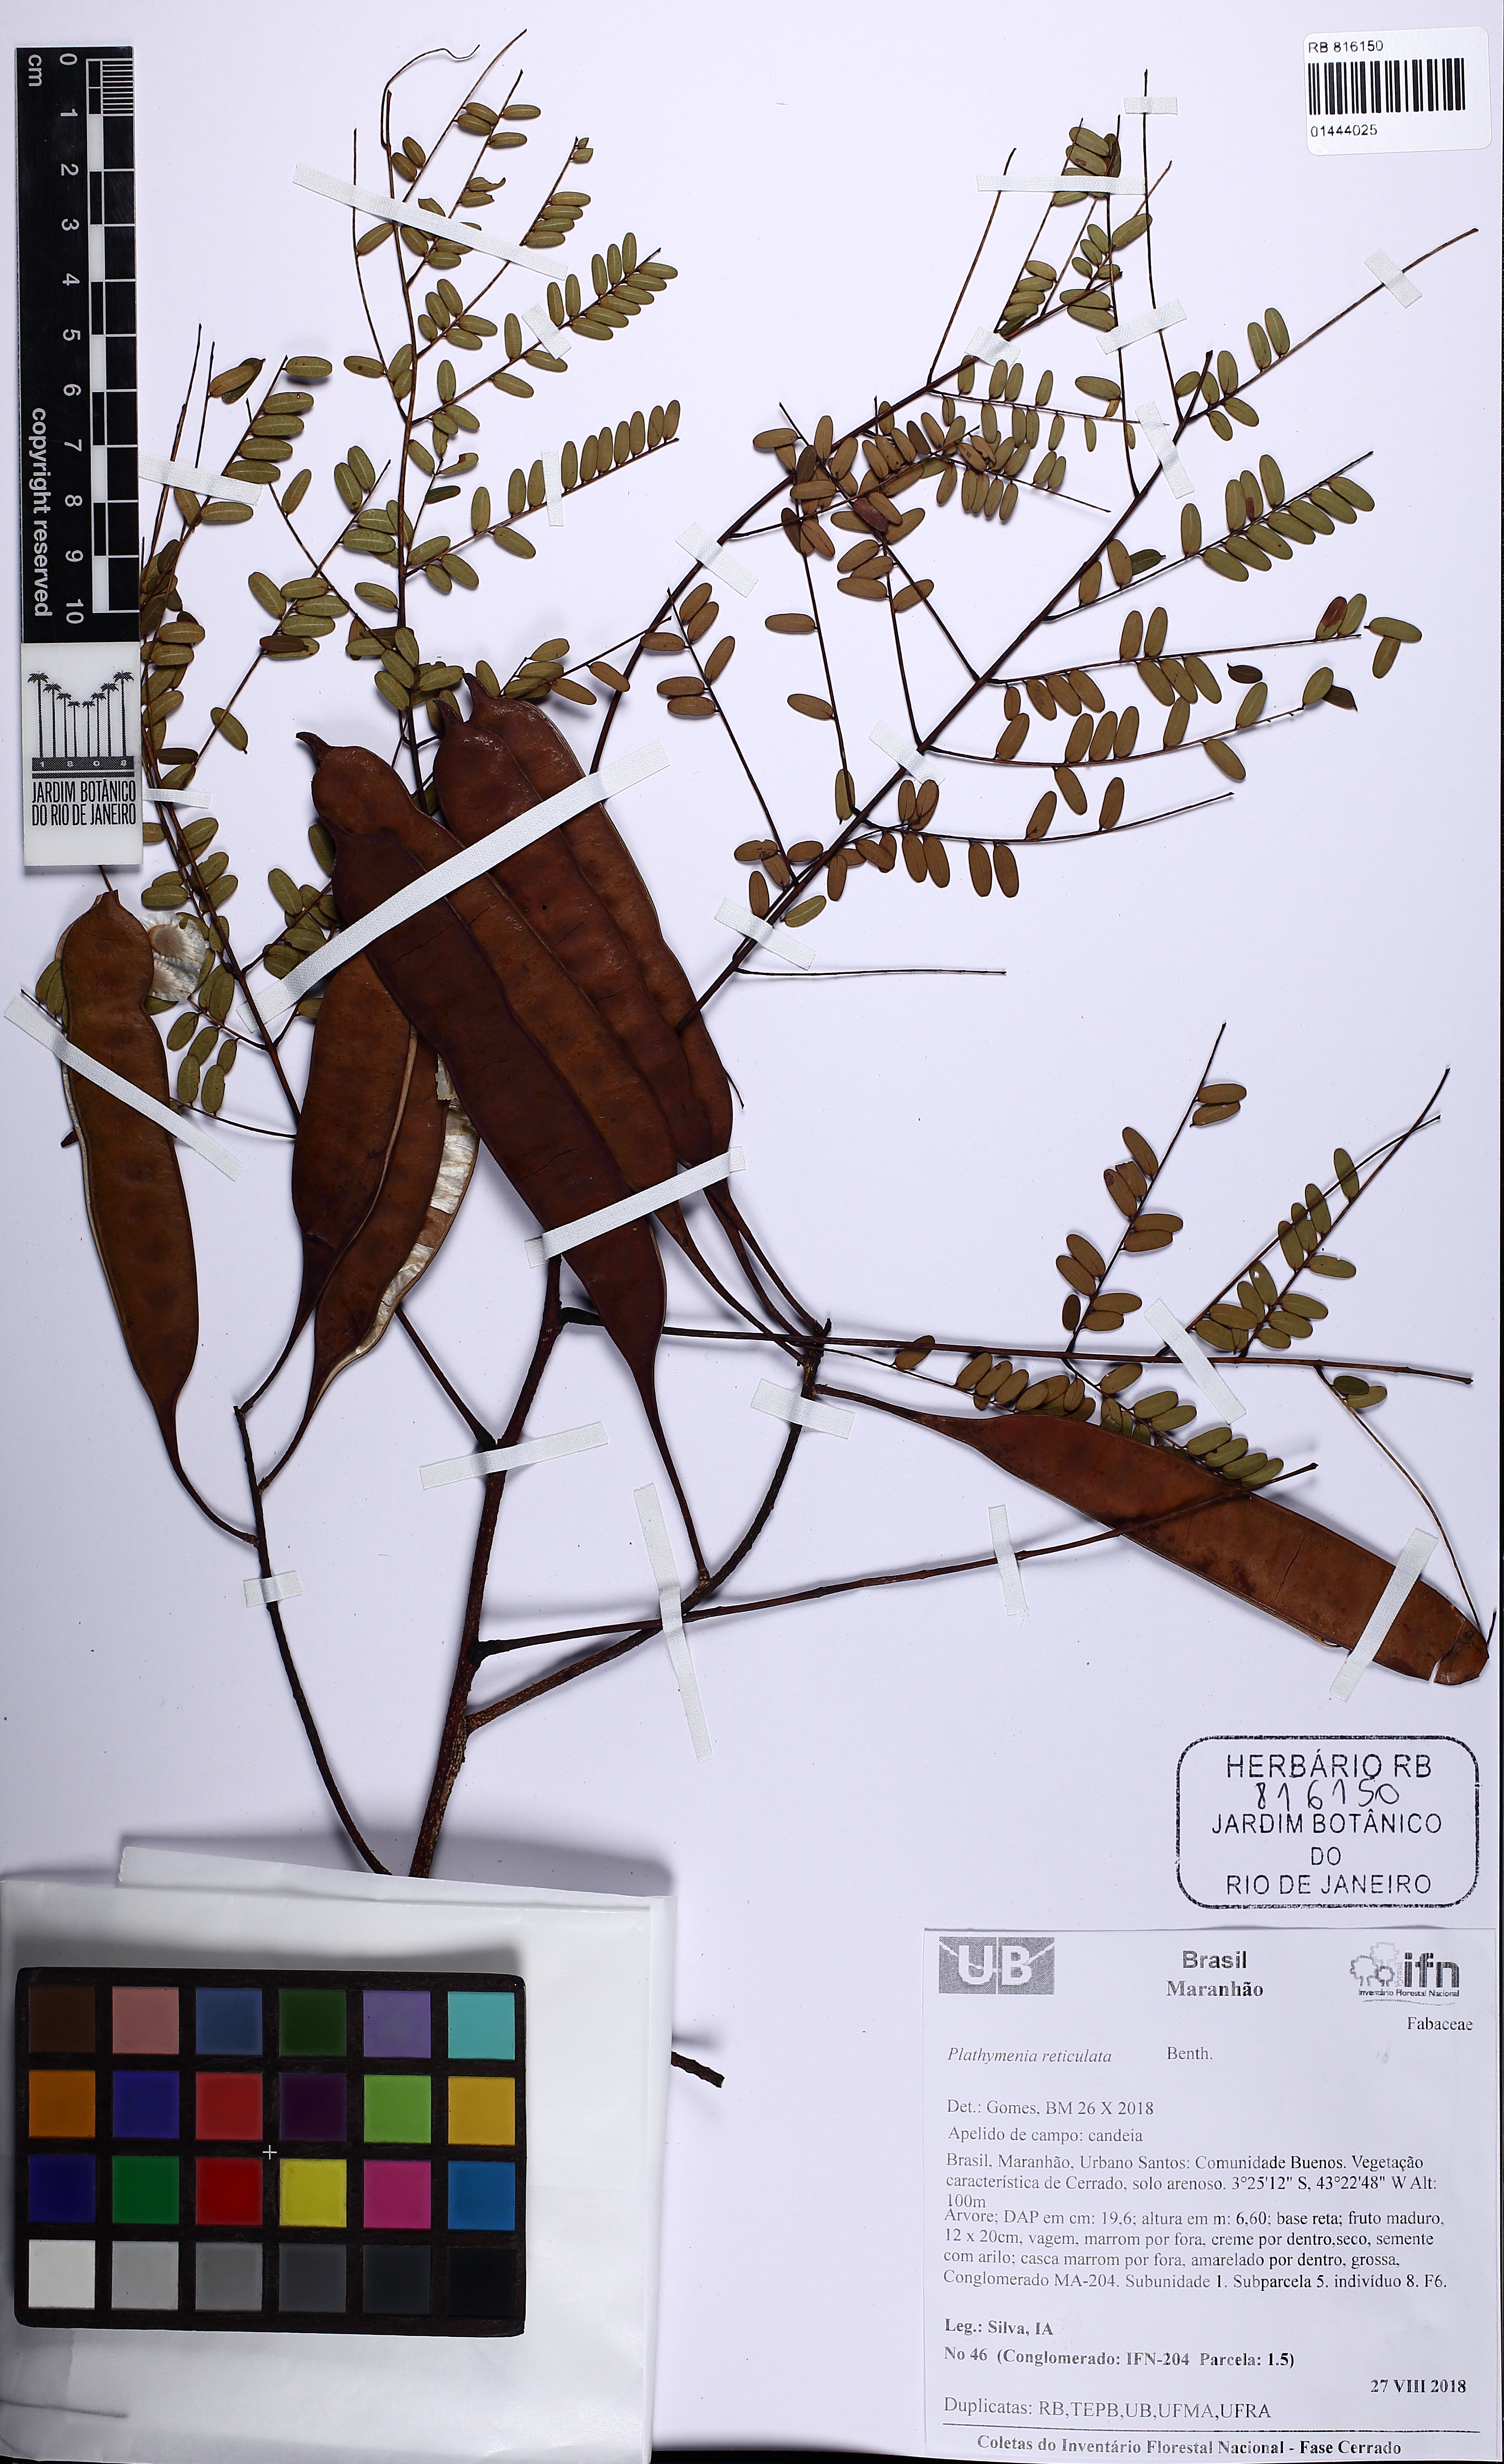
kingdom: Plantae
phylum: Tracheophyta
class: Magnoliopsida
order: Fabales
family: Fabaceae
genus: Plathymenia
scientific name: Plathymenia reticulata
